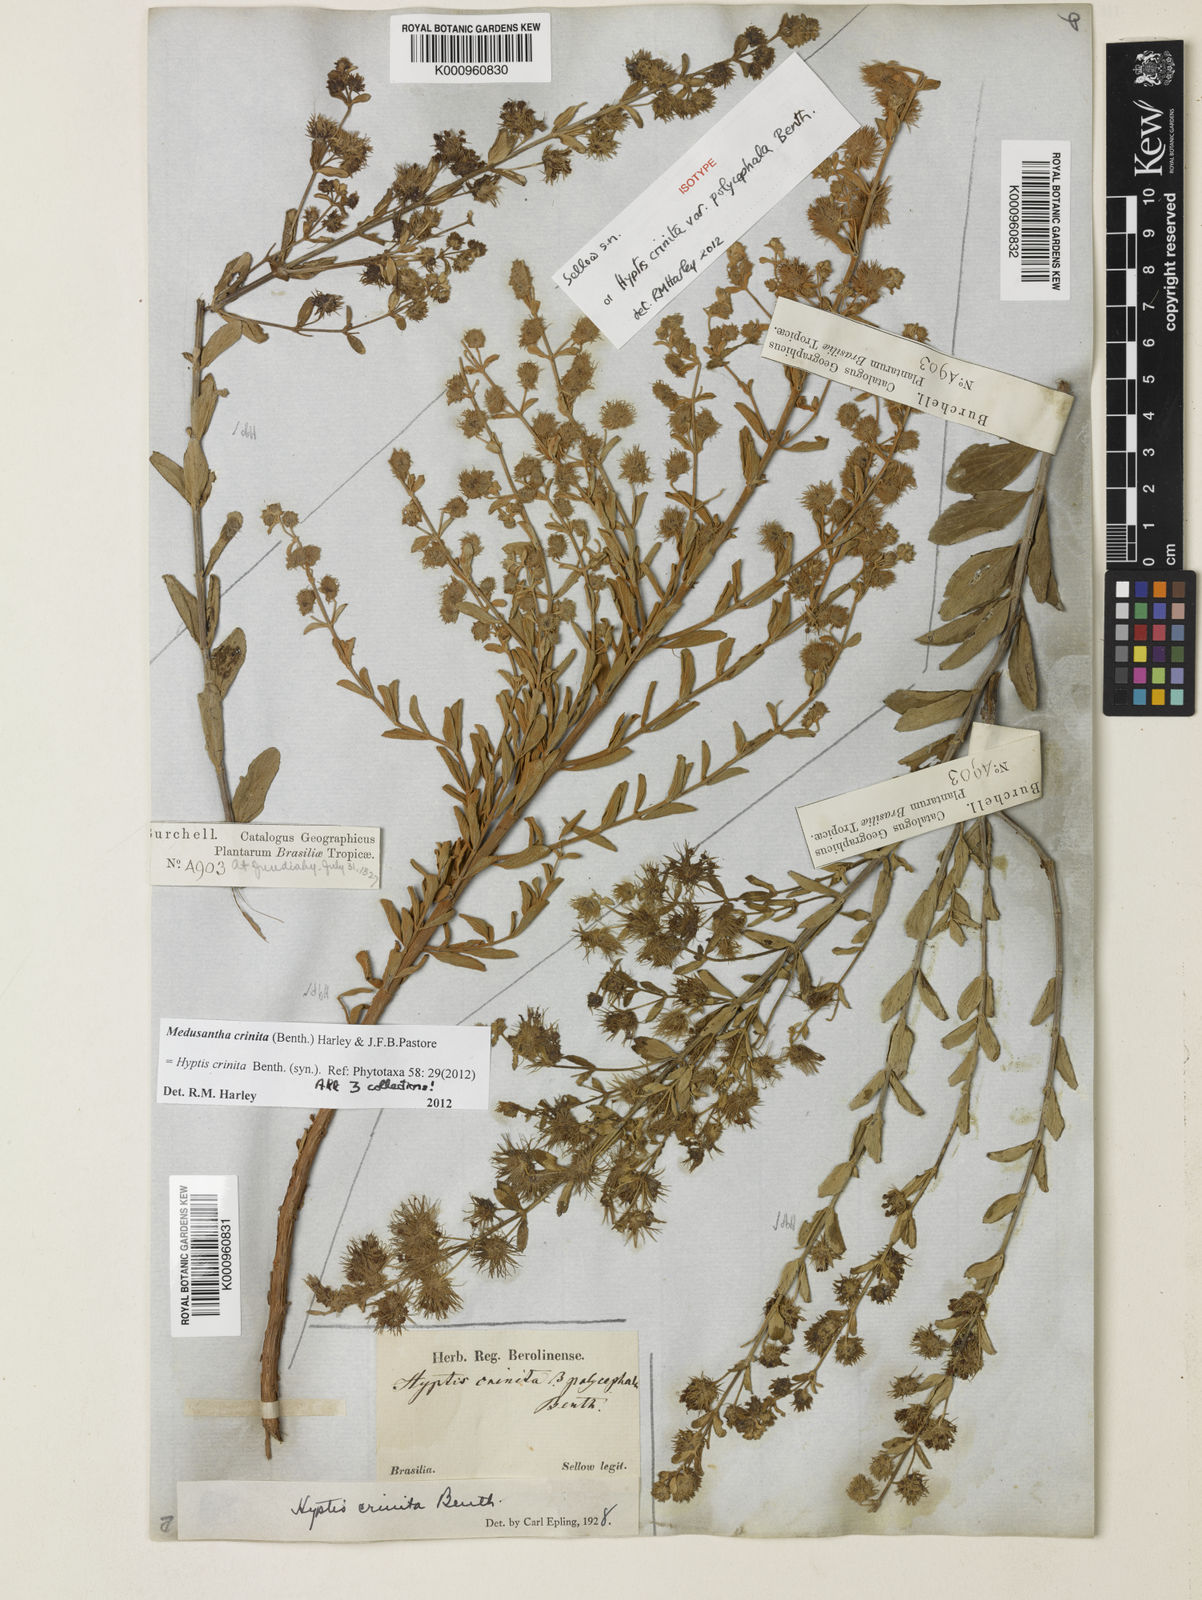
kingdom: Plantae
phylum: Tracheophyta
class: Magnoliopsida
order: Lamiales
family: Lamiaceae
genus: Medusantha
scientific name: Medusantha crinita
